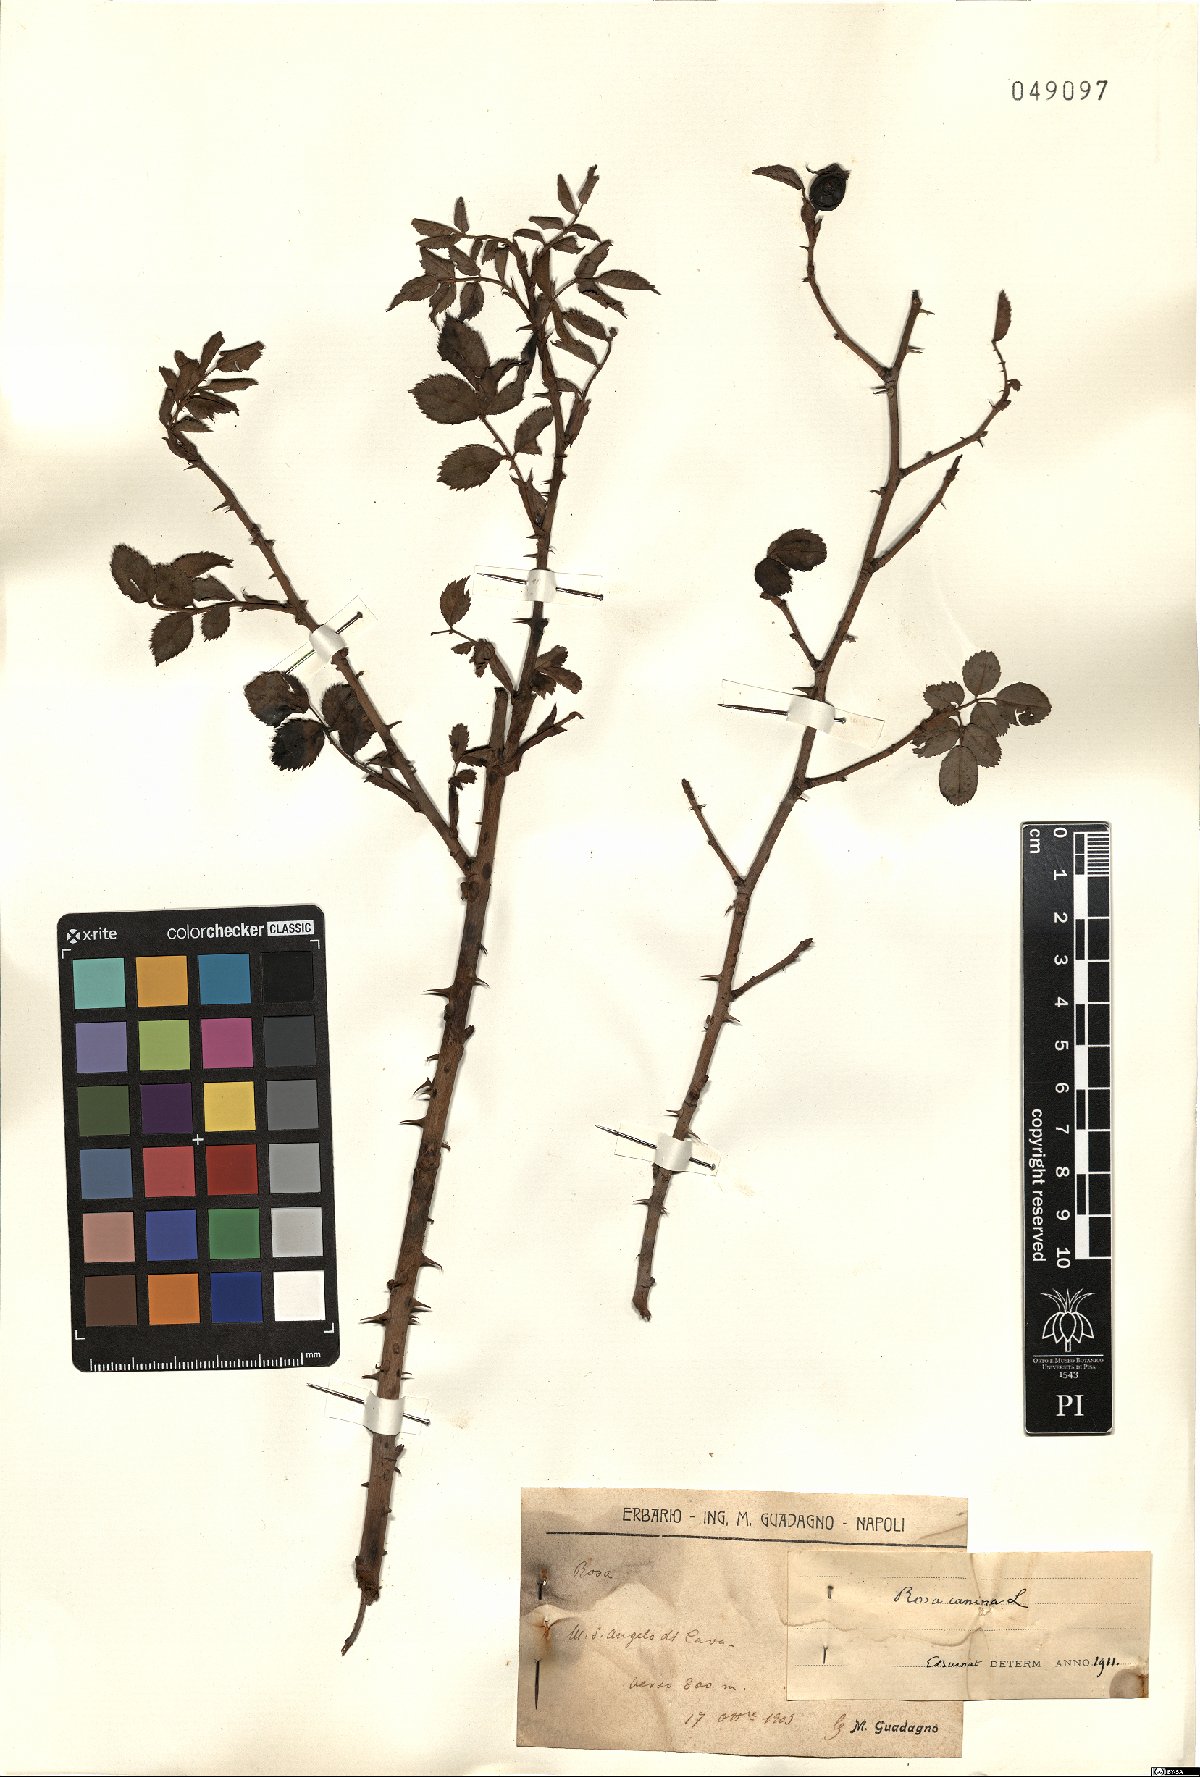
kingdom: Plantae
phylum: Tracheophyta
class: Magnoliopsida
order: Rosales
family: Rosaceae
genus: Rosa
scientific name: Rosa canina
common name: Dog rose
